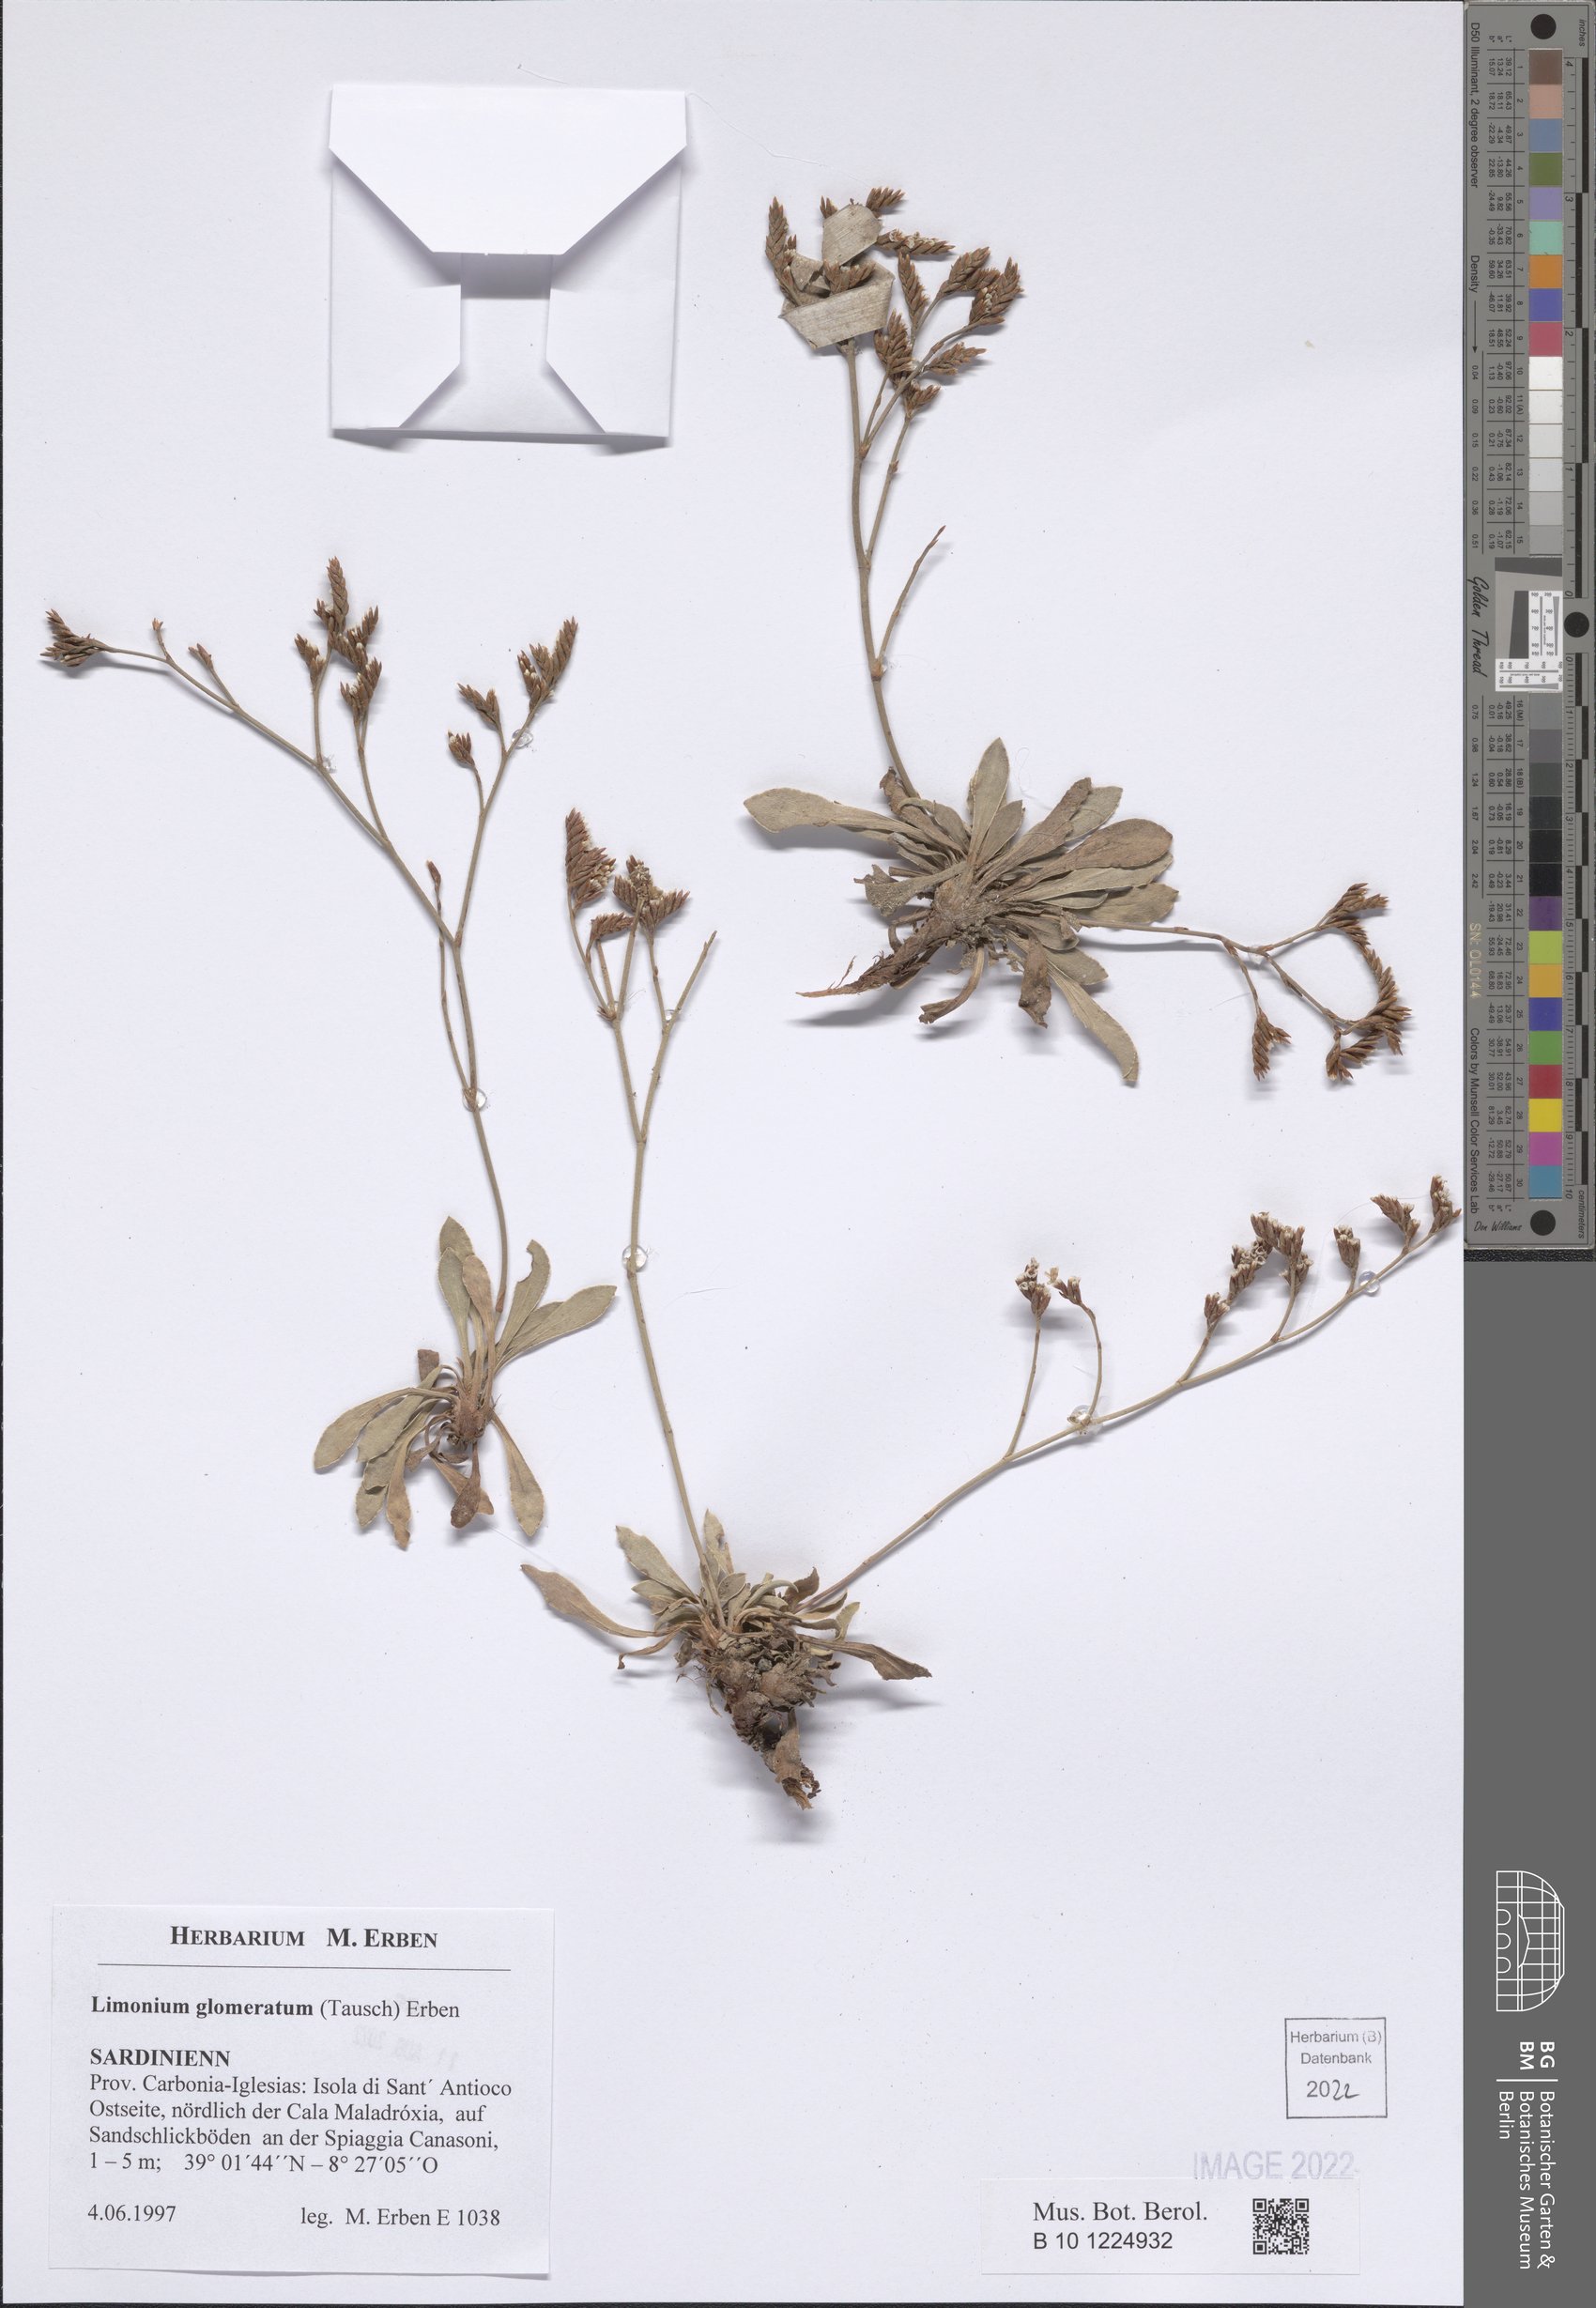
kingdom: Plantae
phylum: Tracheophyta
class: Magnoliopsida
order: Caryophyllales
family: Plumbaginaceae
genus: Limonium
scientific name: Limonium glomeratum
